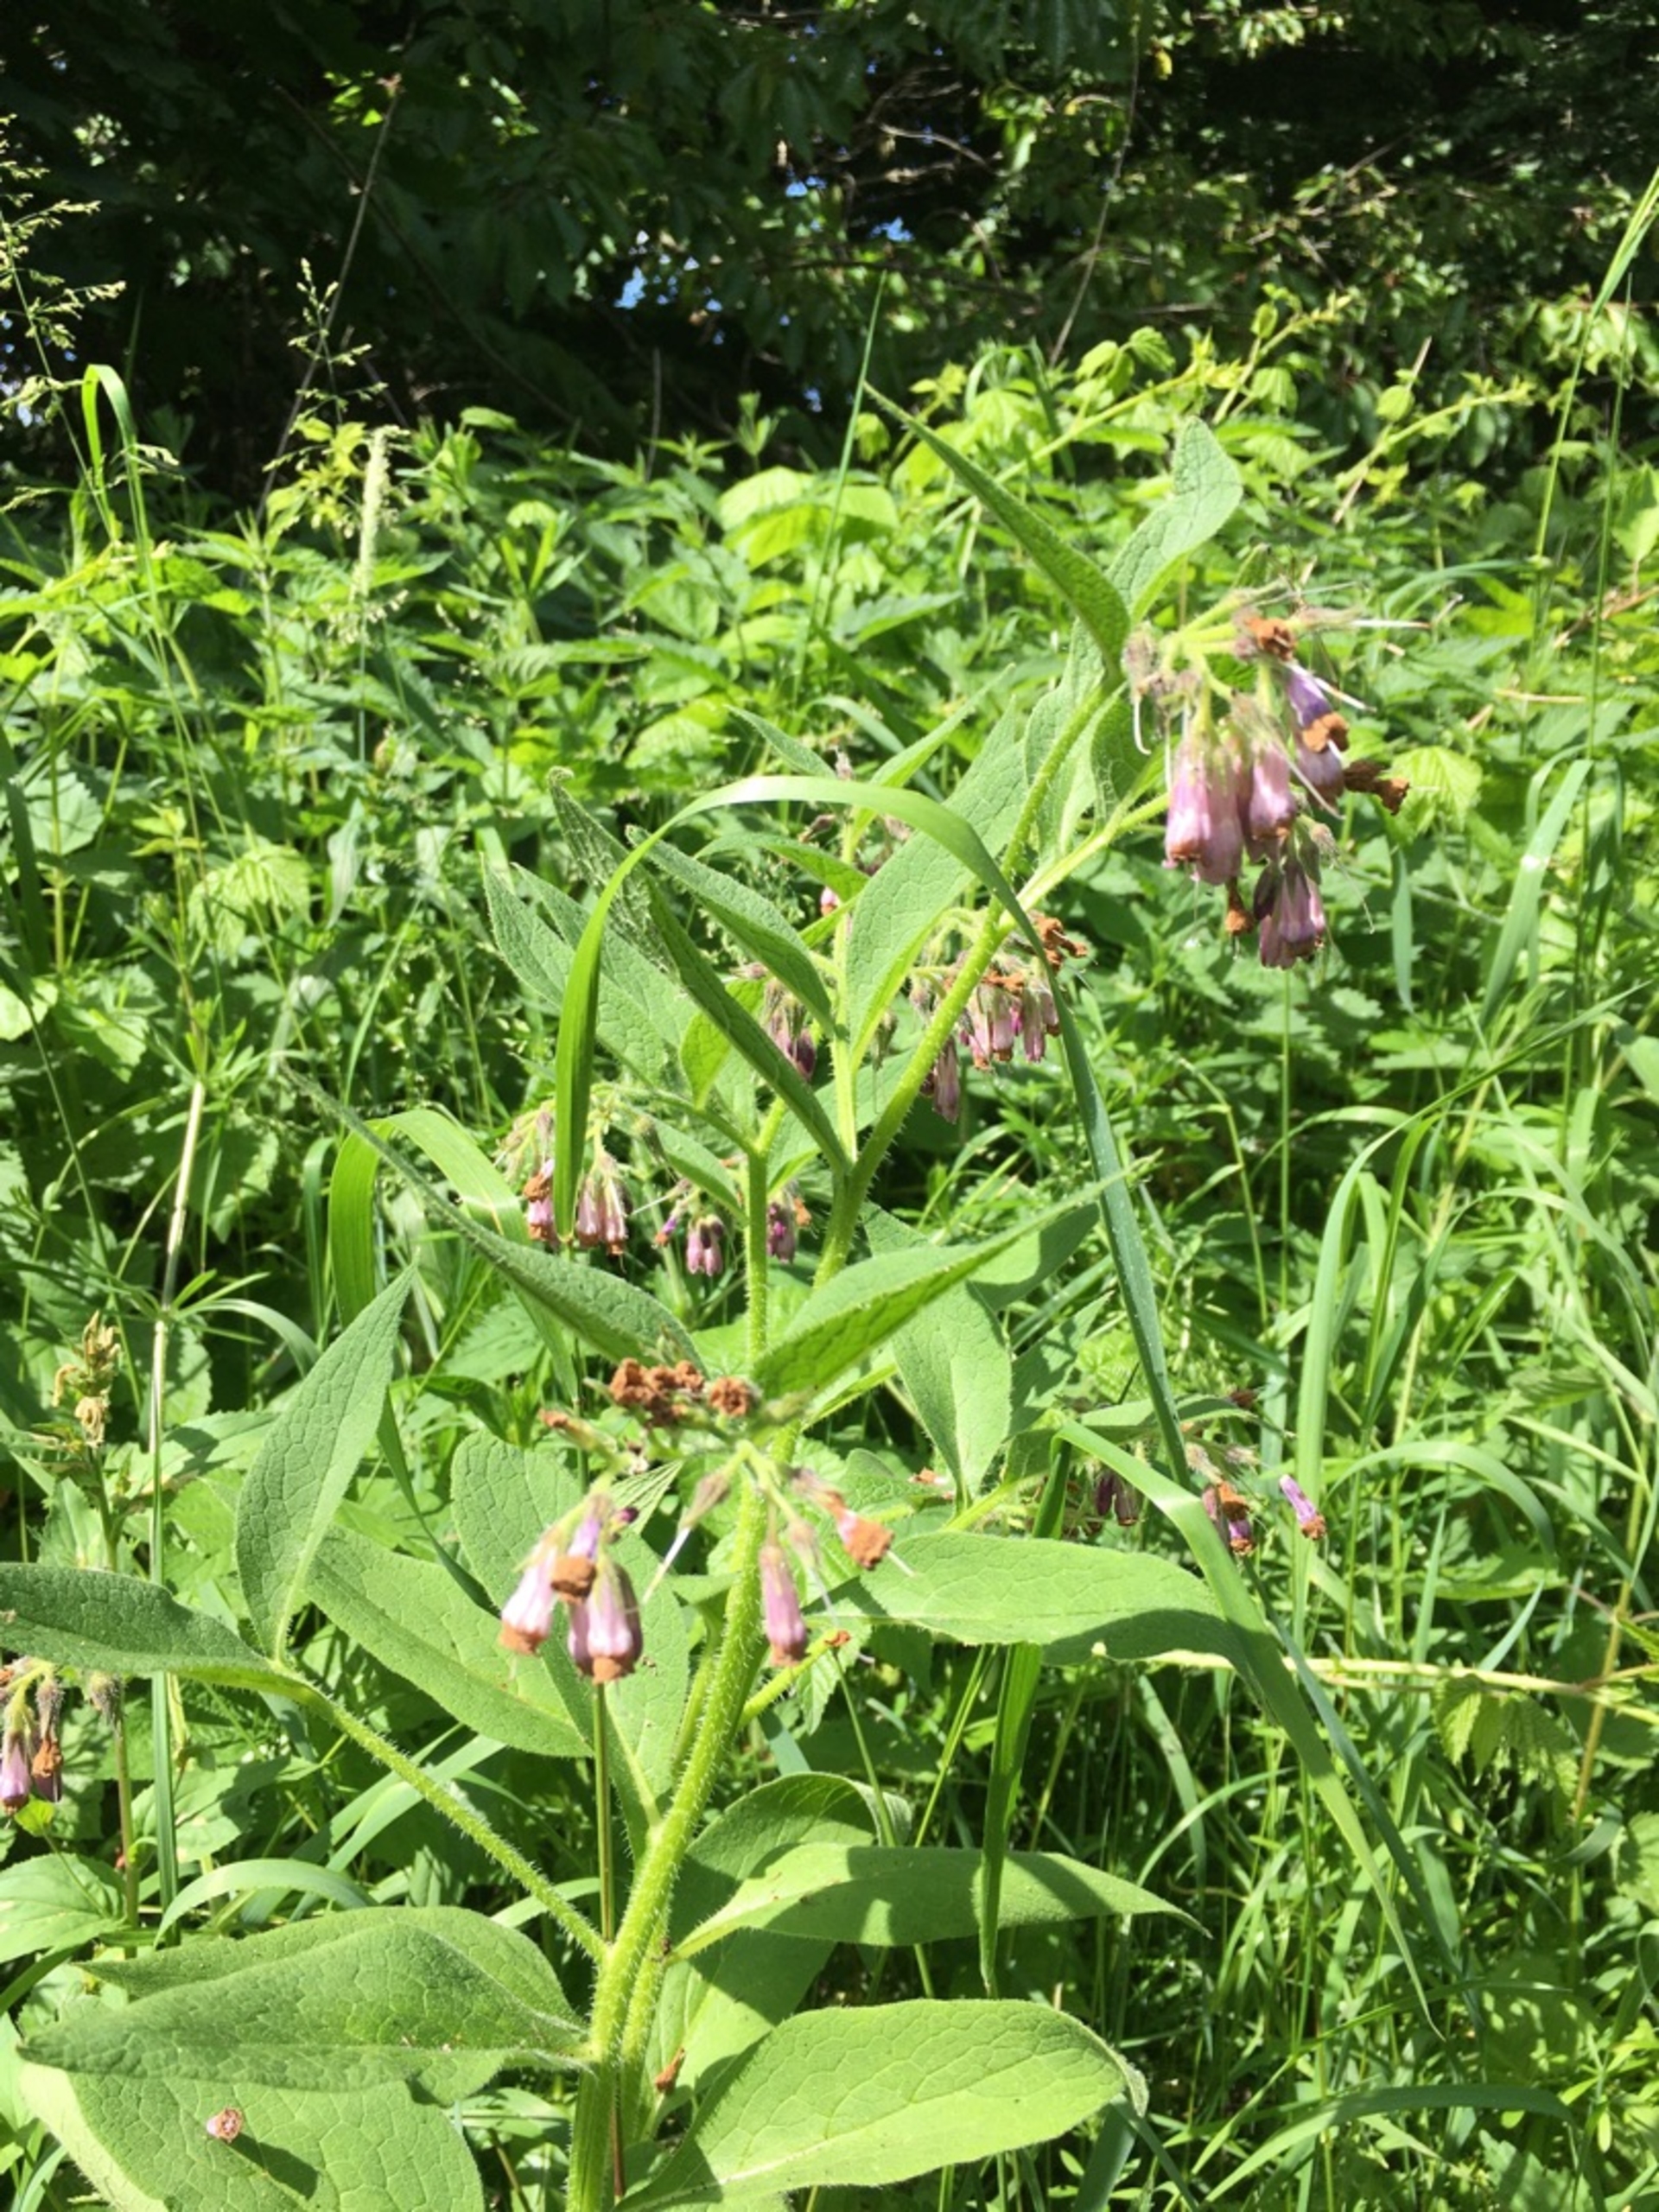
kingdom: Plantae
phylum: Tracheophyta
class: Magnoliopsida
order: Boraginales
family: Boraginaceae
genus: Symphytum
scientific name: Symphytum uplandicum
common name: Foder-kulsukker
